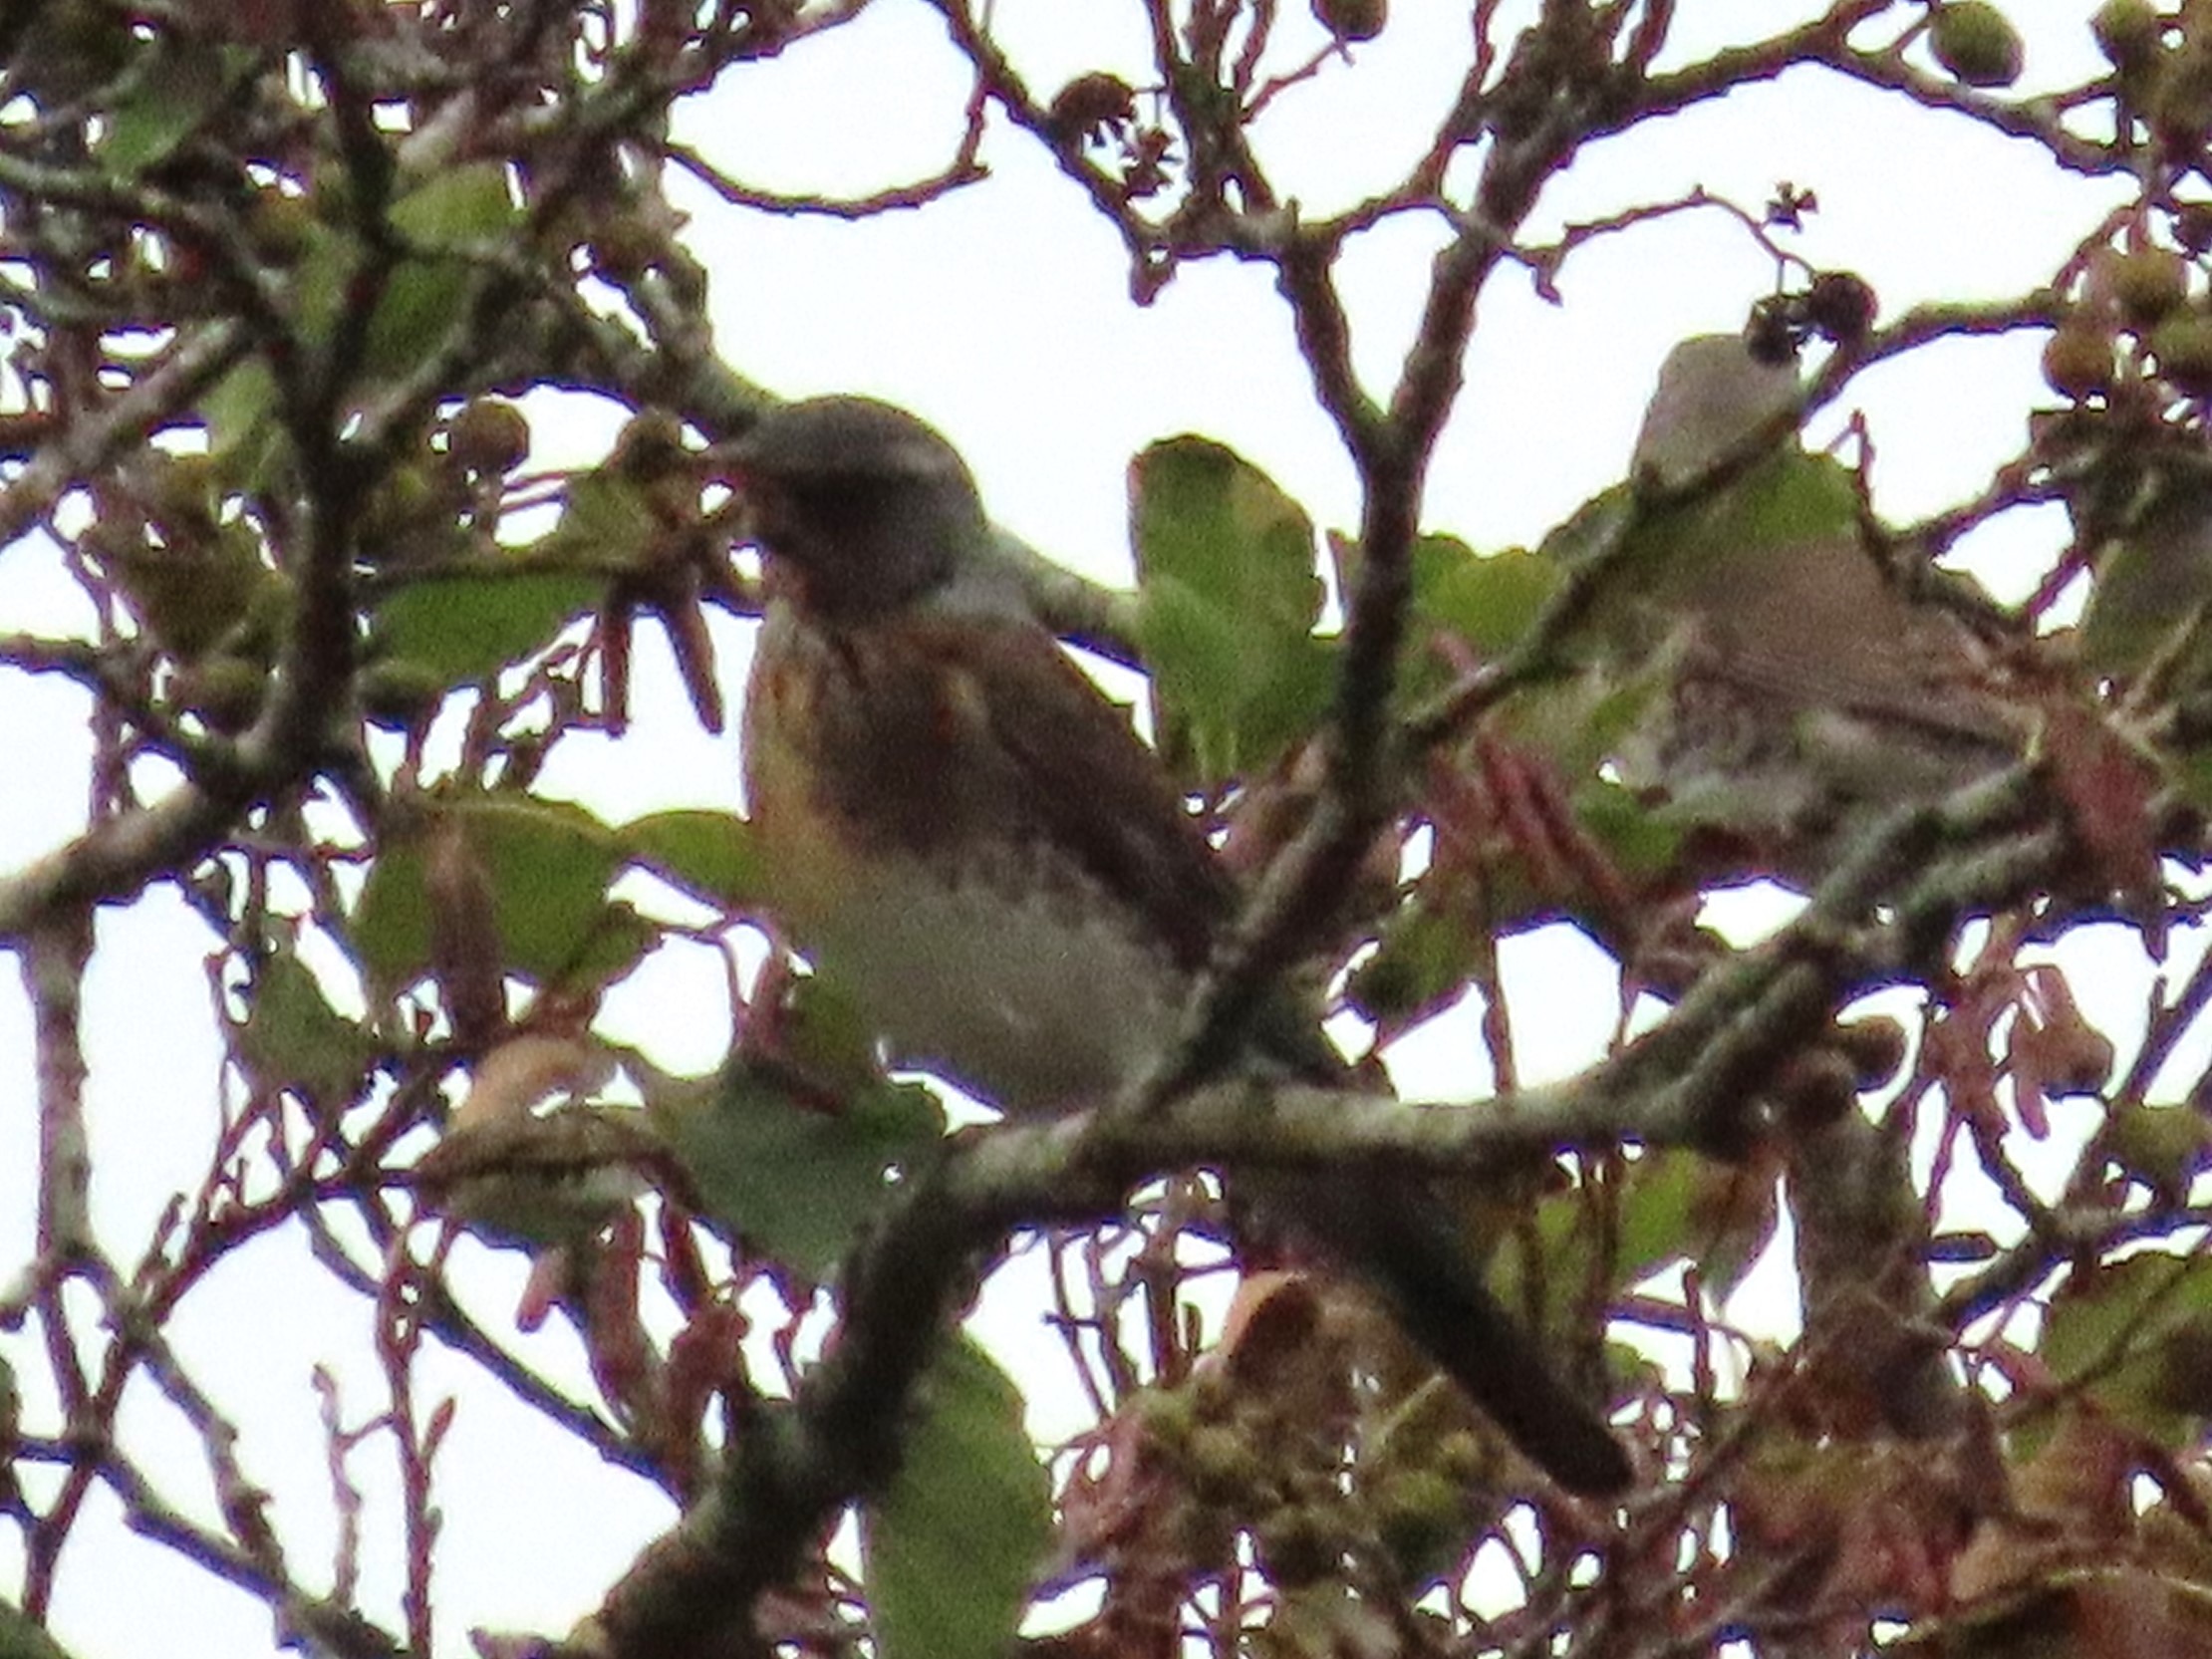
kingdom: Animalia
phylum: Chordata
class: Aves
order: Passeriformes
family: Turdidae
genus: Turdus
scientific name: Turdus pilaris
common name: Sjagger
